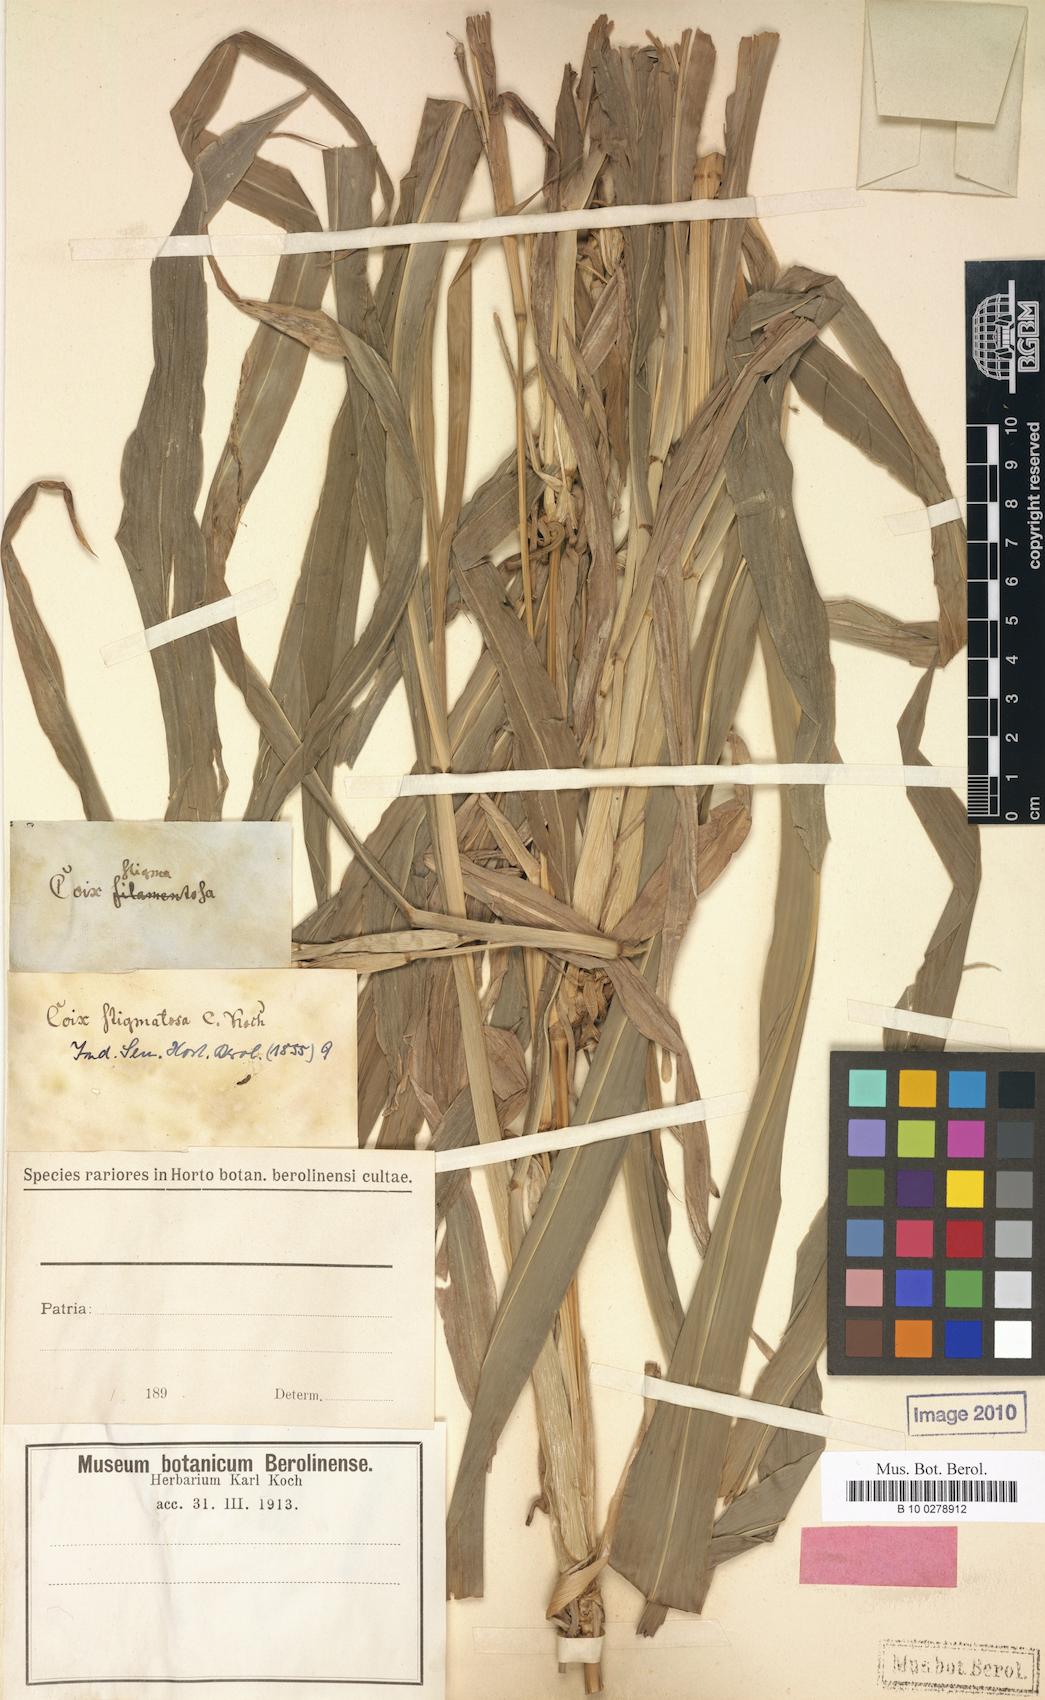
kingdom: Plantae
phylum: Tracheophyta
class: Liliopsida
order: Poales
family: Poaceae
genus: Coix
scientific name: Coix lacryma-jobi
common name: Job's tears
